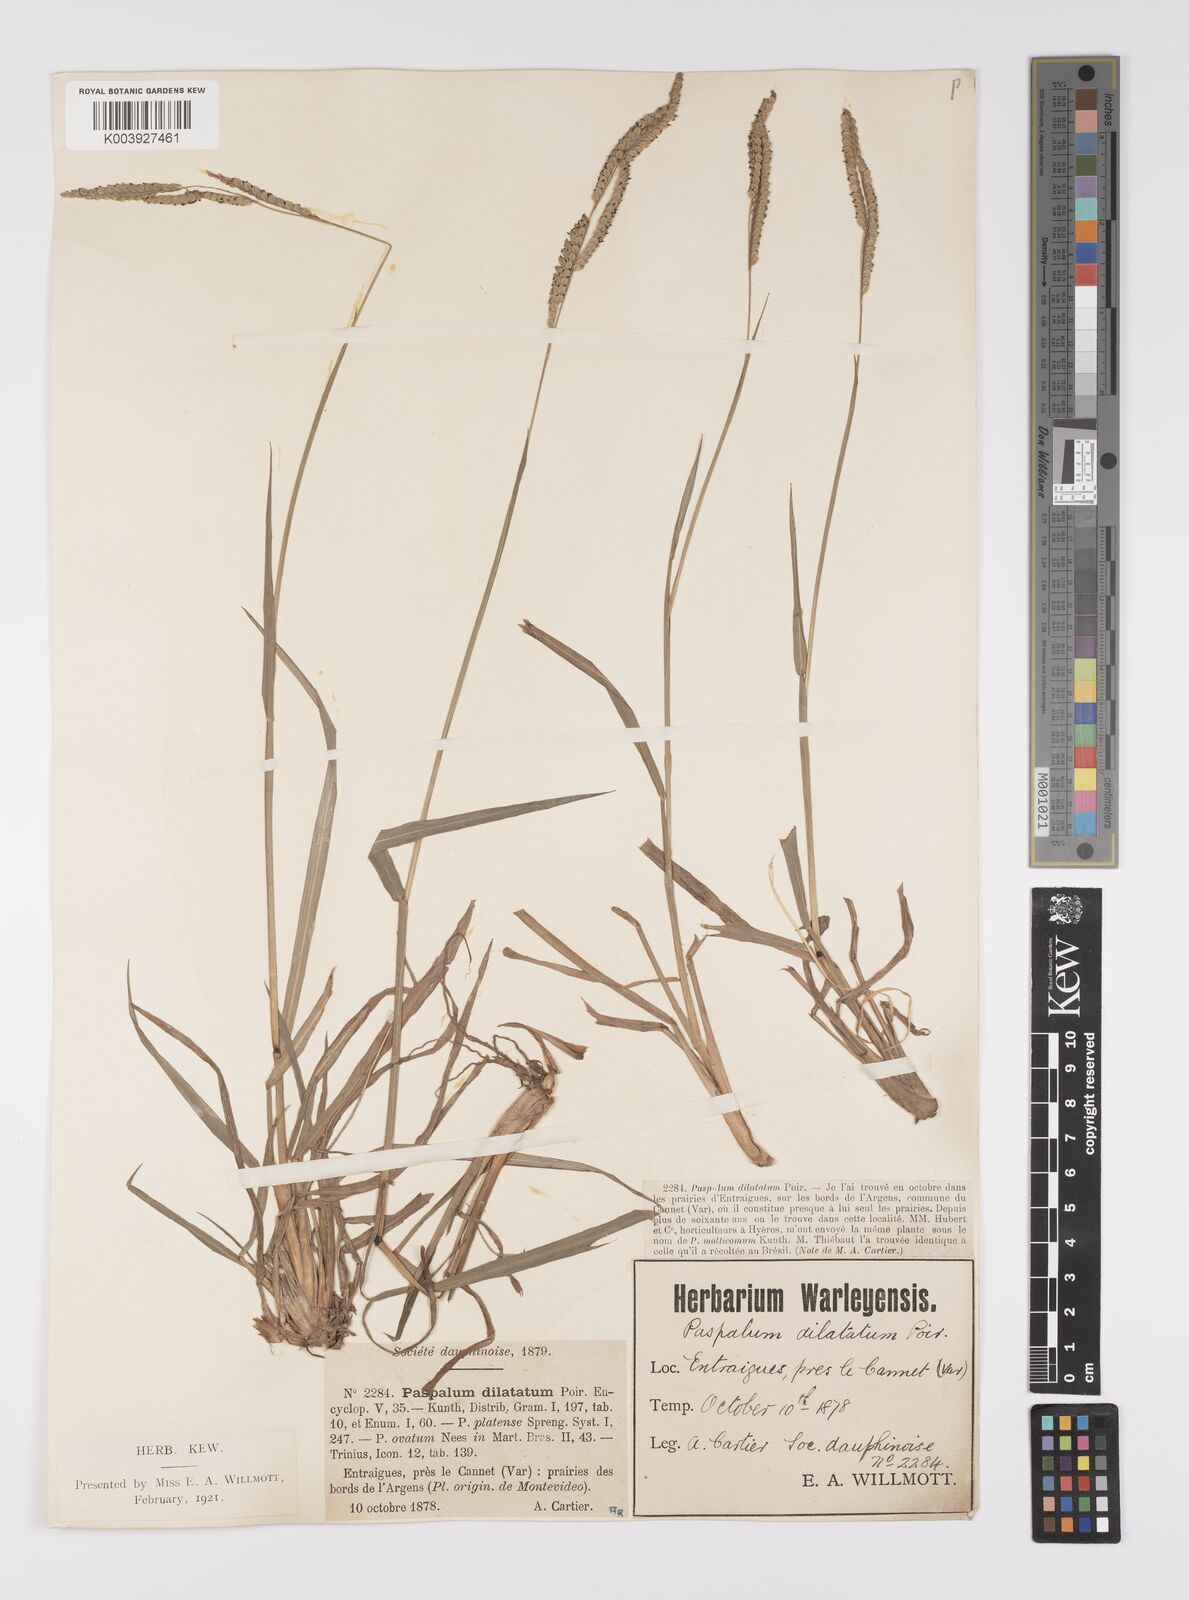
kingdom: Plantae
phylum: Tracheophyta
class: Liliopsida
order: Poales
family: Poaceae
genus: Paspalum
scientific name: Paspalum dilatatum
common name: Dallisgrass
